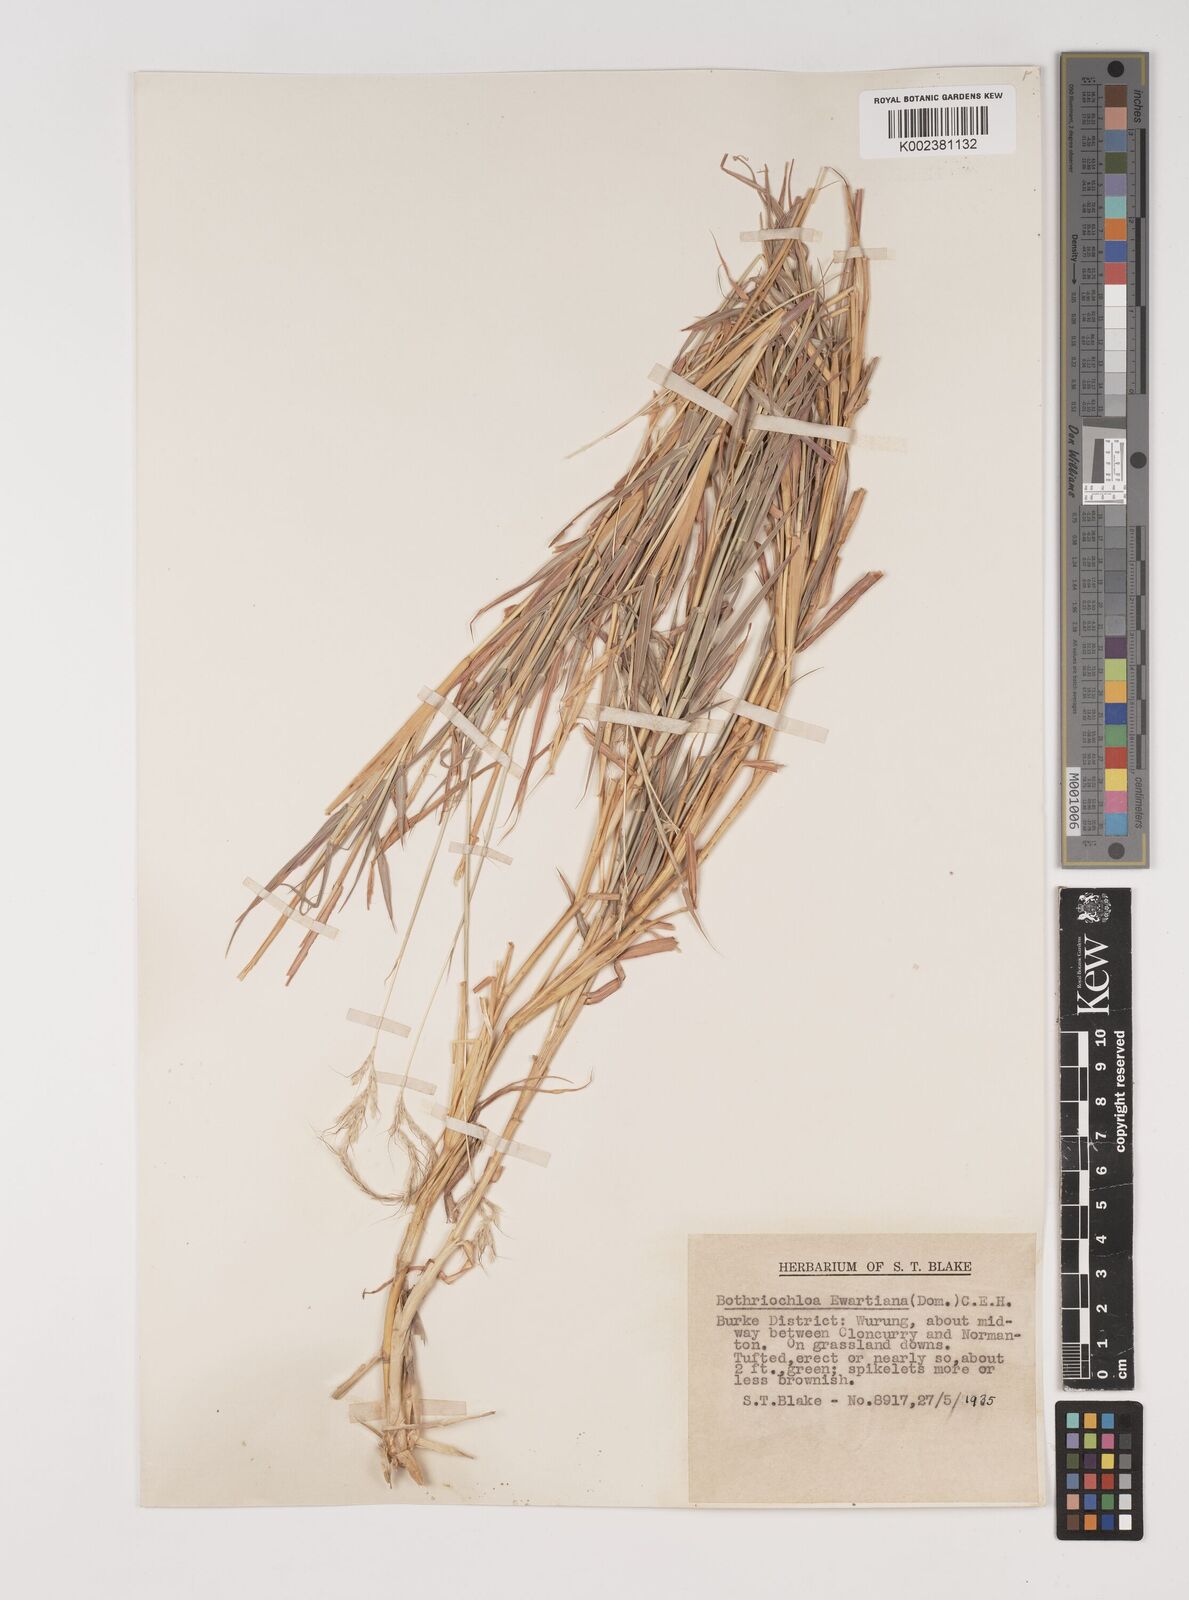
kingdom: Plantae
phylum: Tracheophyta
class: Liliopsida
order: Poales
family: Poaceae
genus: Bothriochloa
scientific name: Bothriochloa ewartiana
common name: Desert-bluegrass
